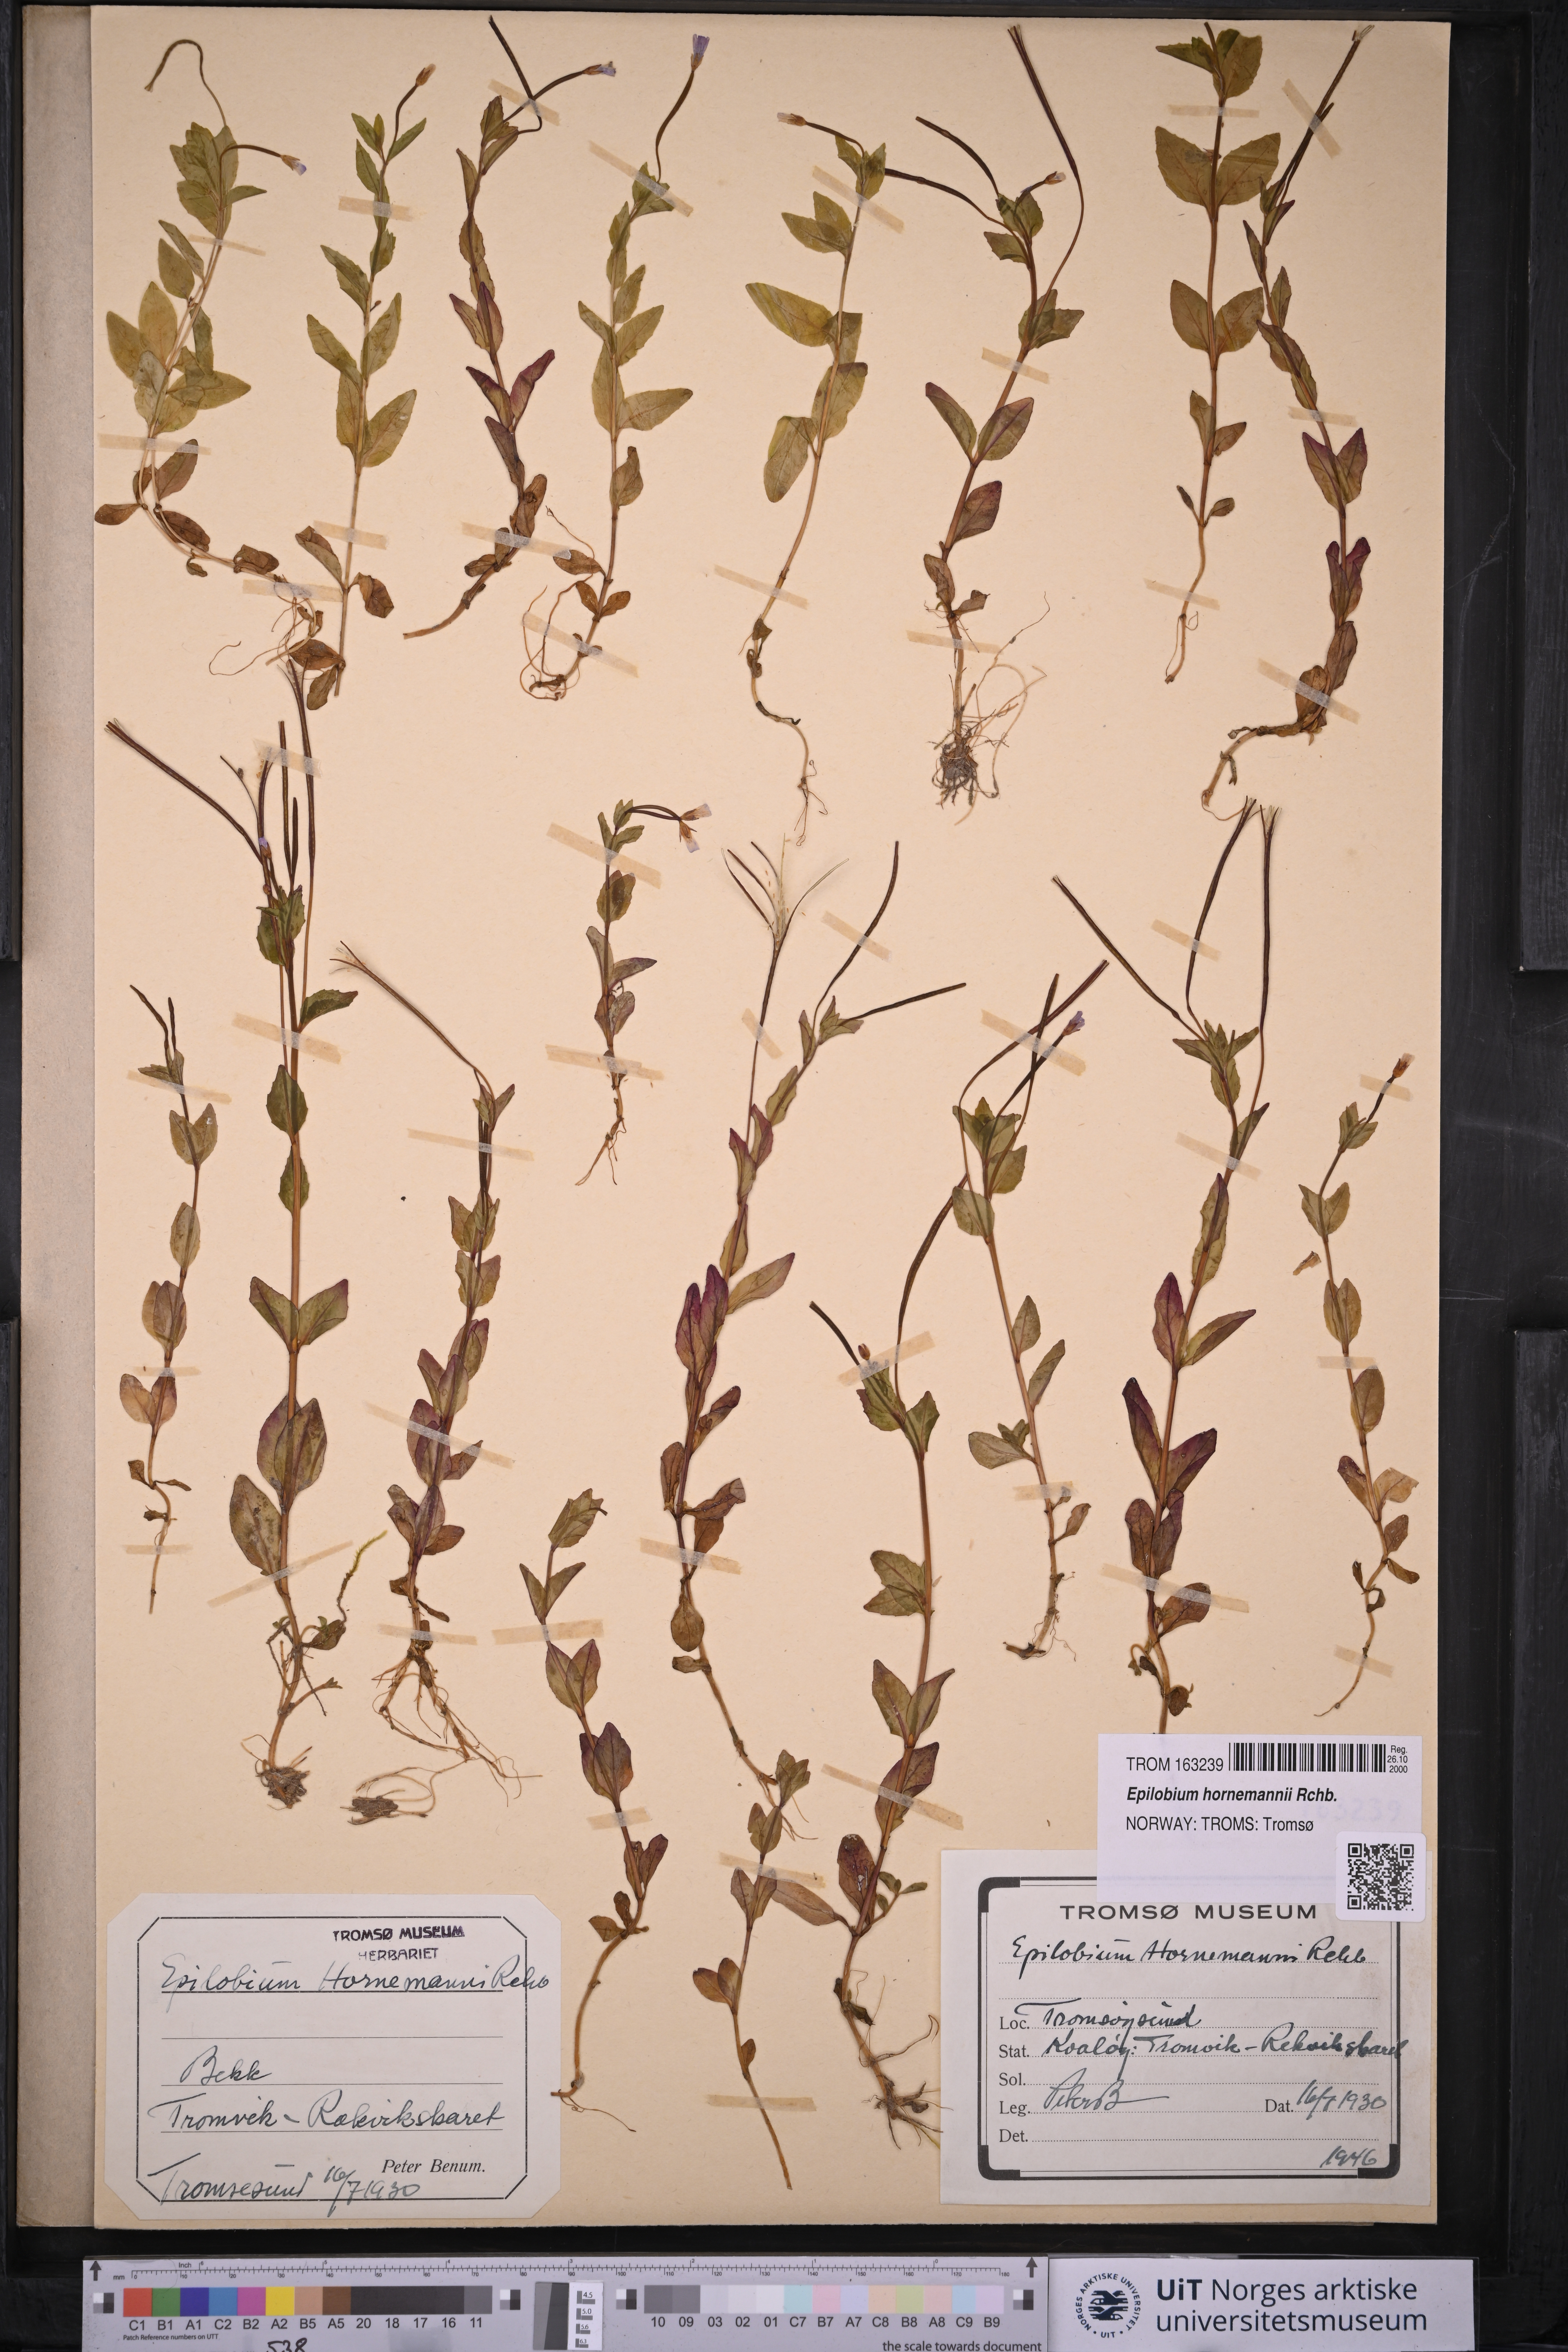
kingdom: Plantae
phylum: Tracheophyta
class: Magnoliopsida
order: Myrtales
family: Onagraceae
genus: Epilobium
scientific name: Epilobium hornemannii
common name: Hornemann's willowherb
